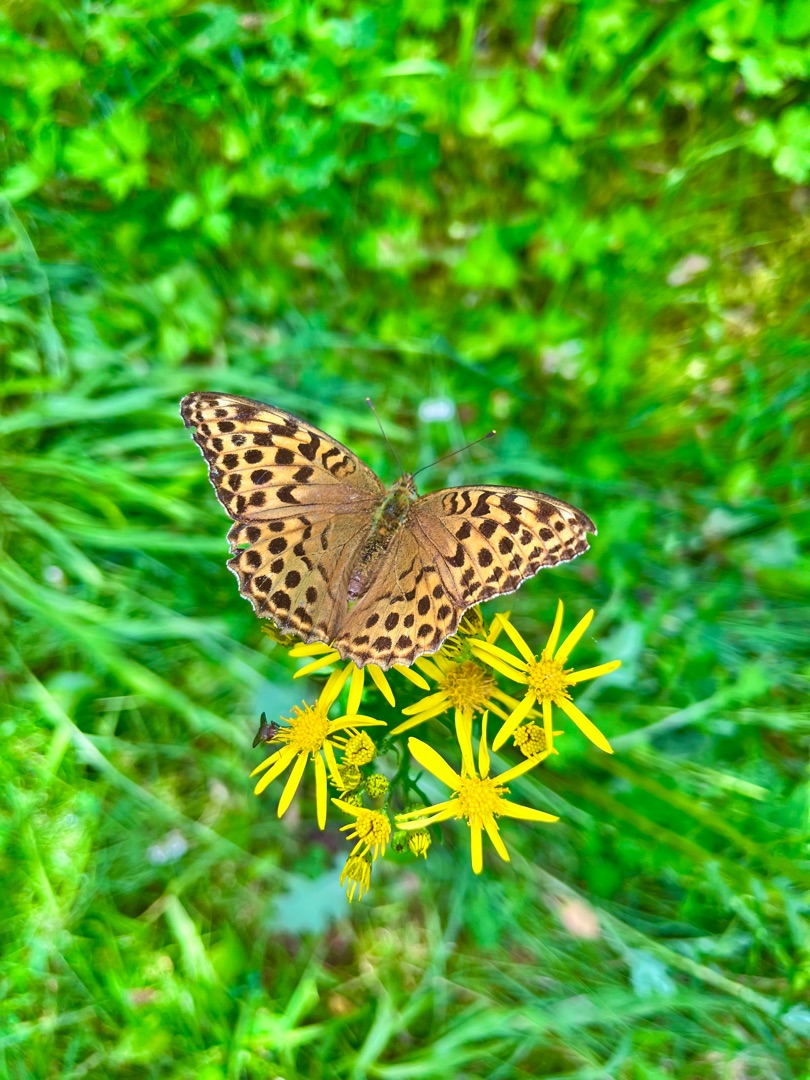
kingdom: Animalia
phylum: Arthropoda
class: Insecta
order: Lepidoptera
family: Nymphalidae
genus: Argynnis
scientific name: Argynnis paphia
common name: Kejserkåbe
